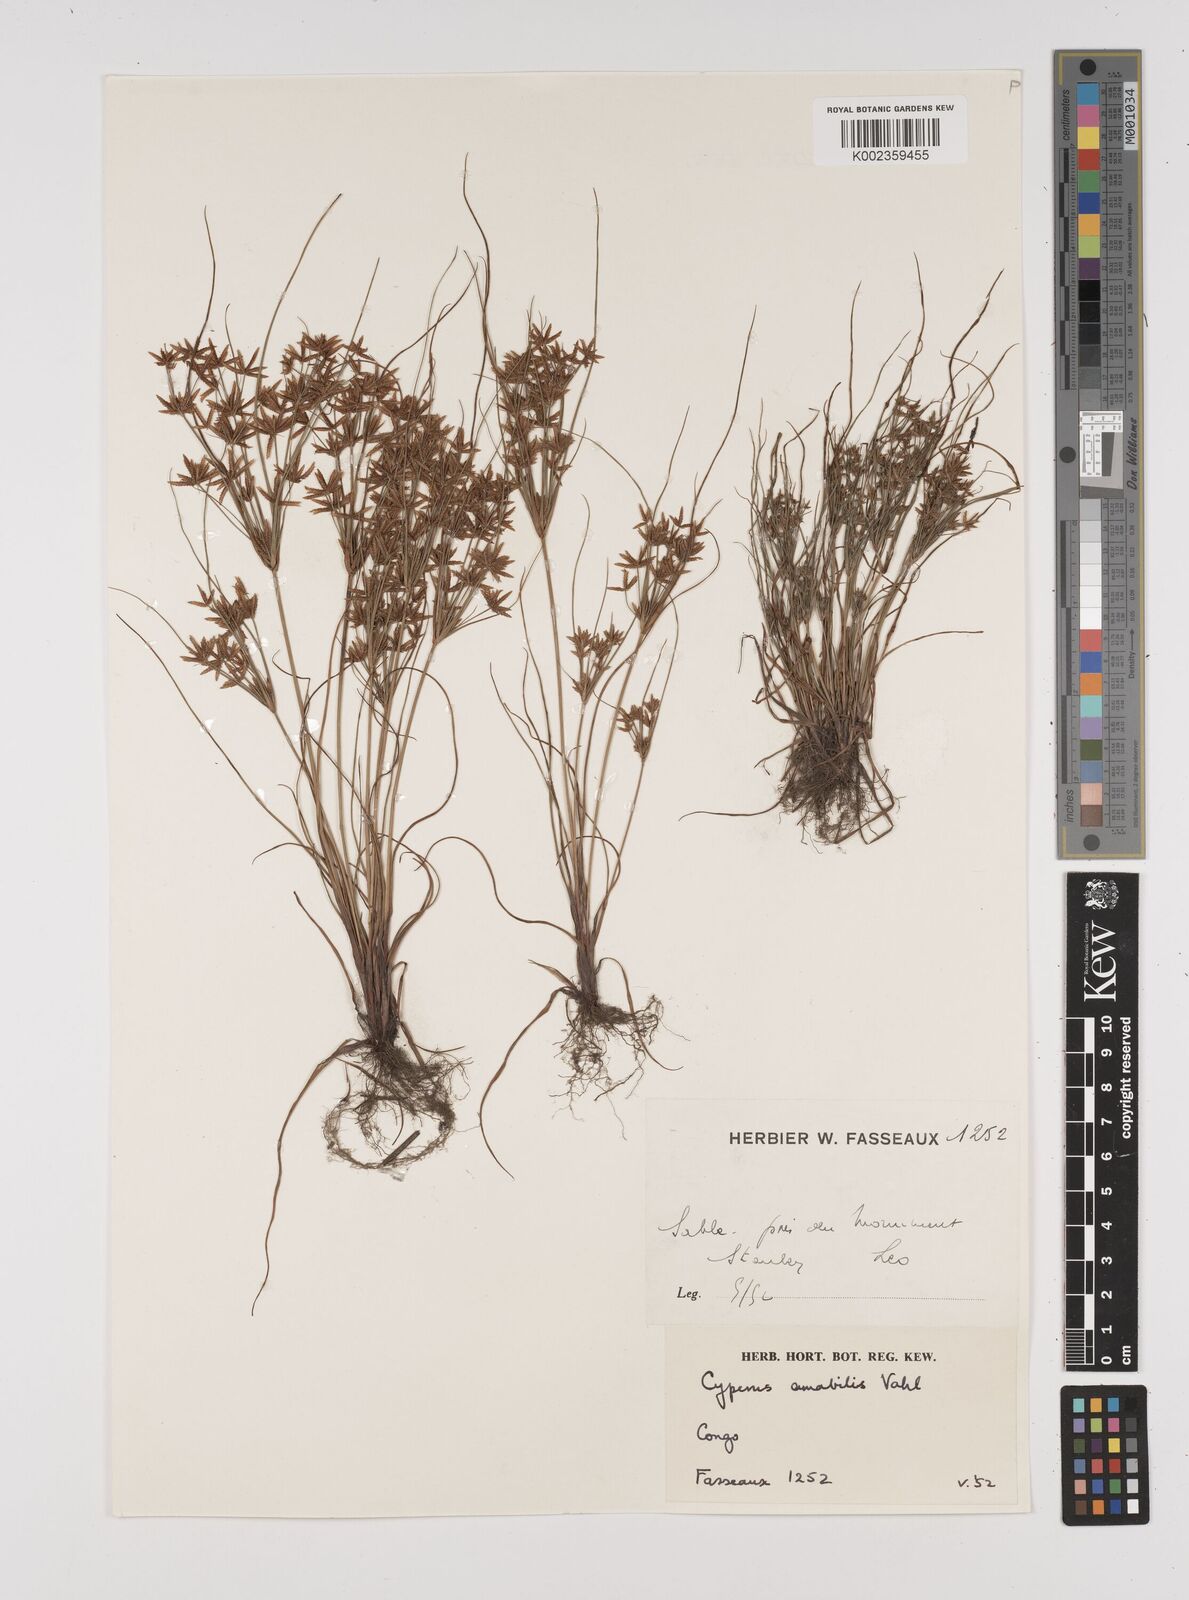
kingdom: Plantae
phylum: Tracheophyta
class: Liliopsida
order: Poales
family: Cyperaceae
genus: Cyperus
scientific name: Cyperus amabilis
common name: Foothill flat sedge
